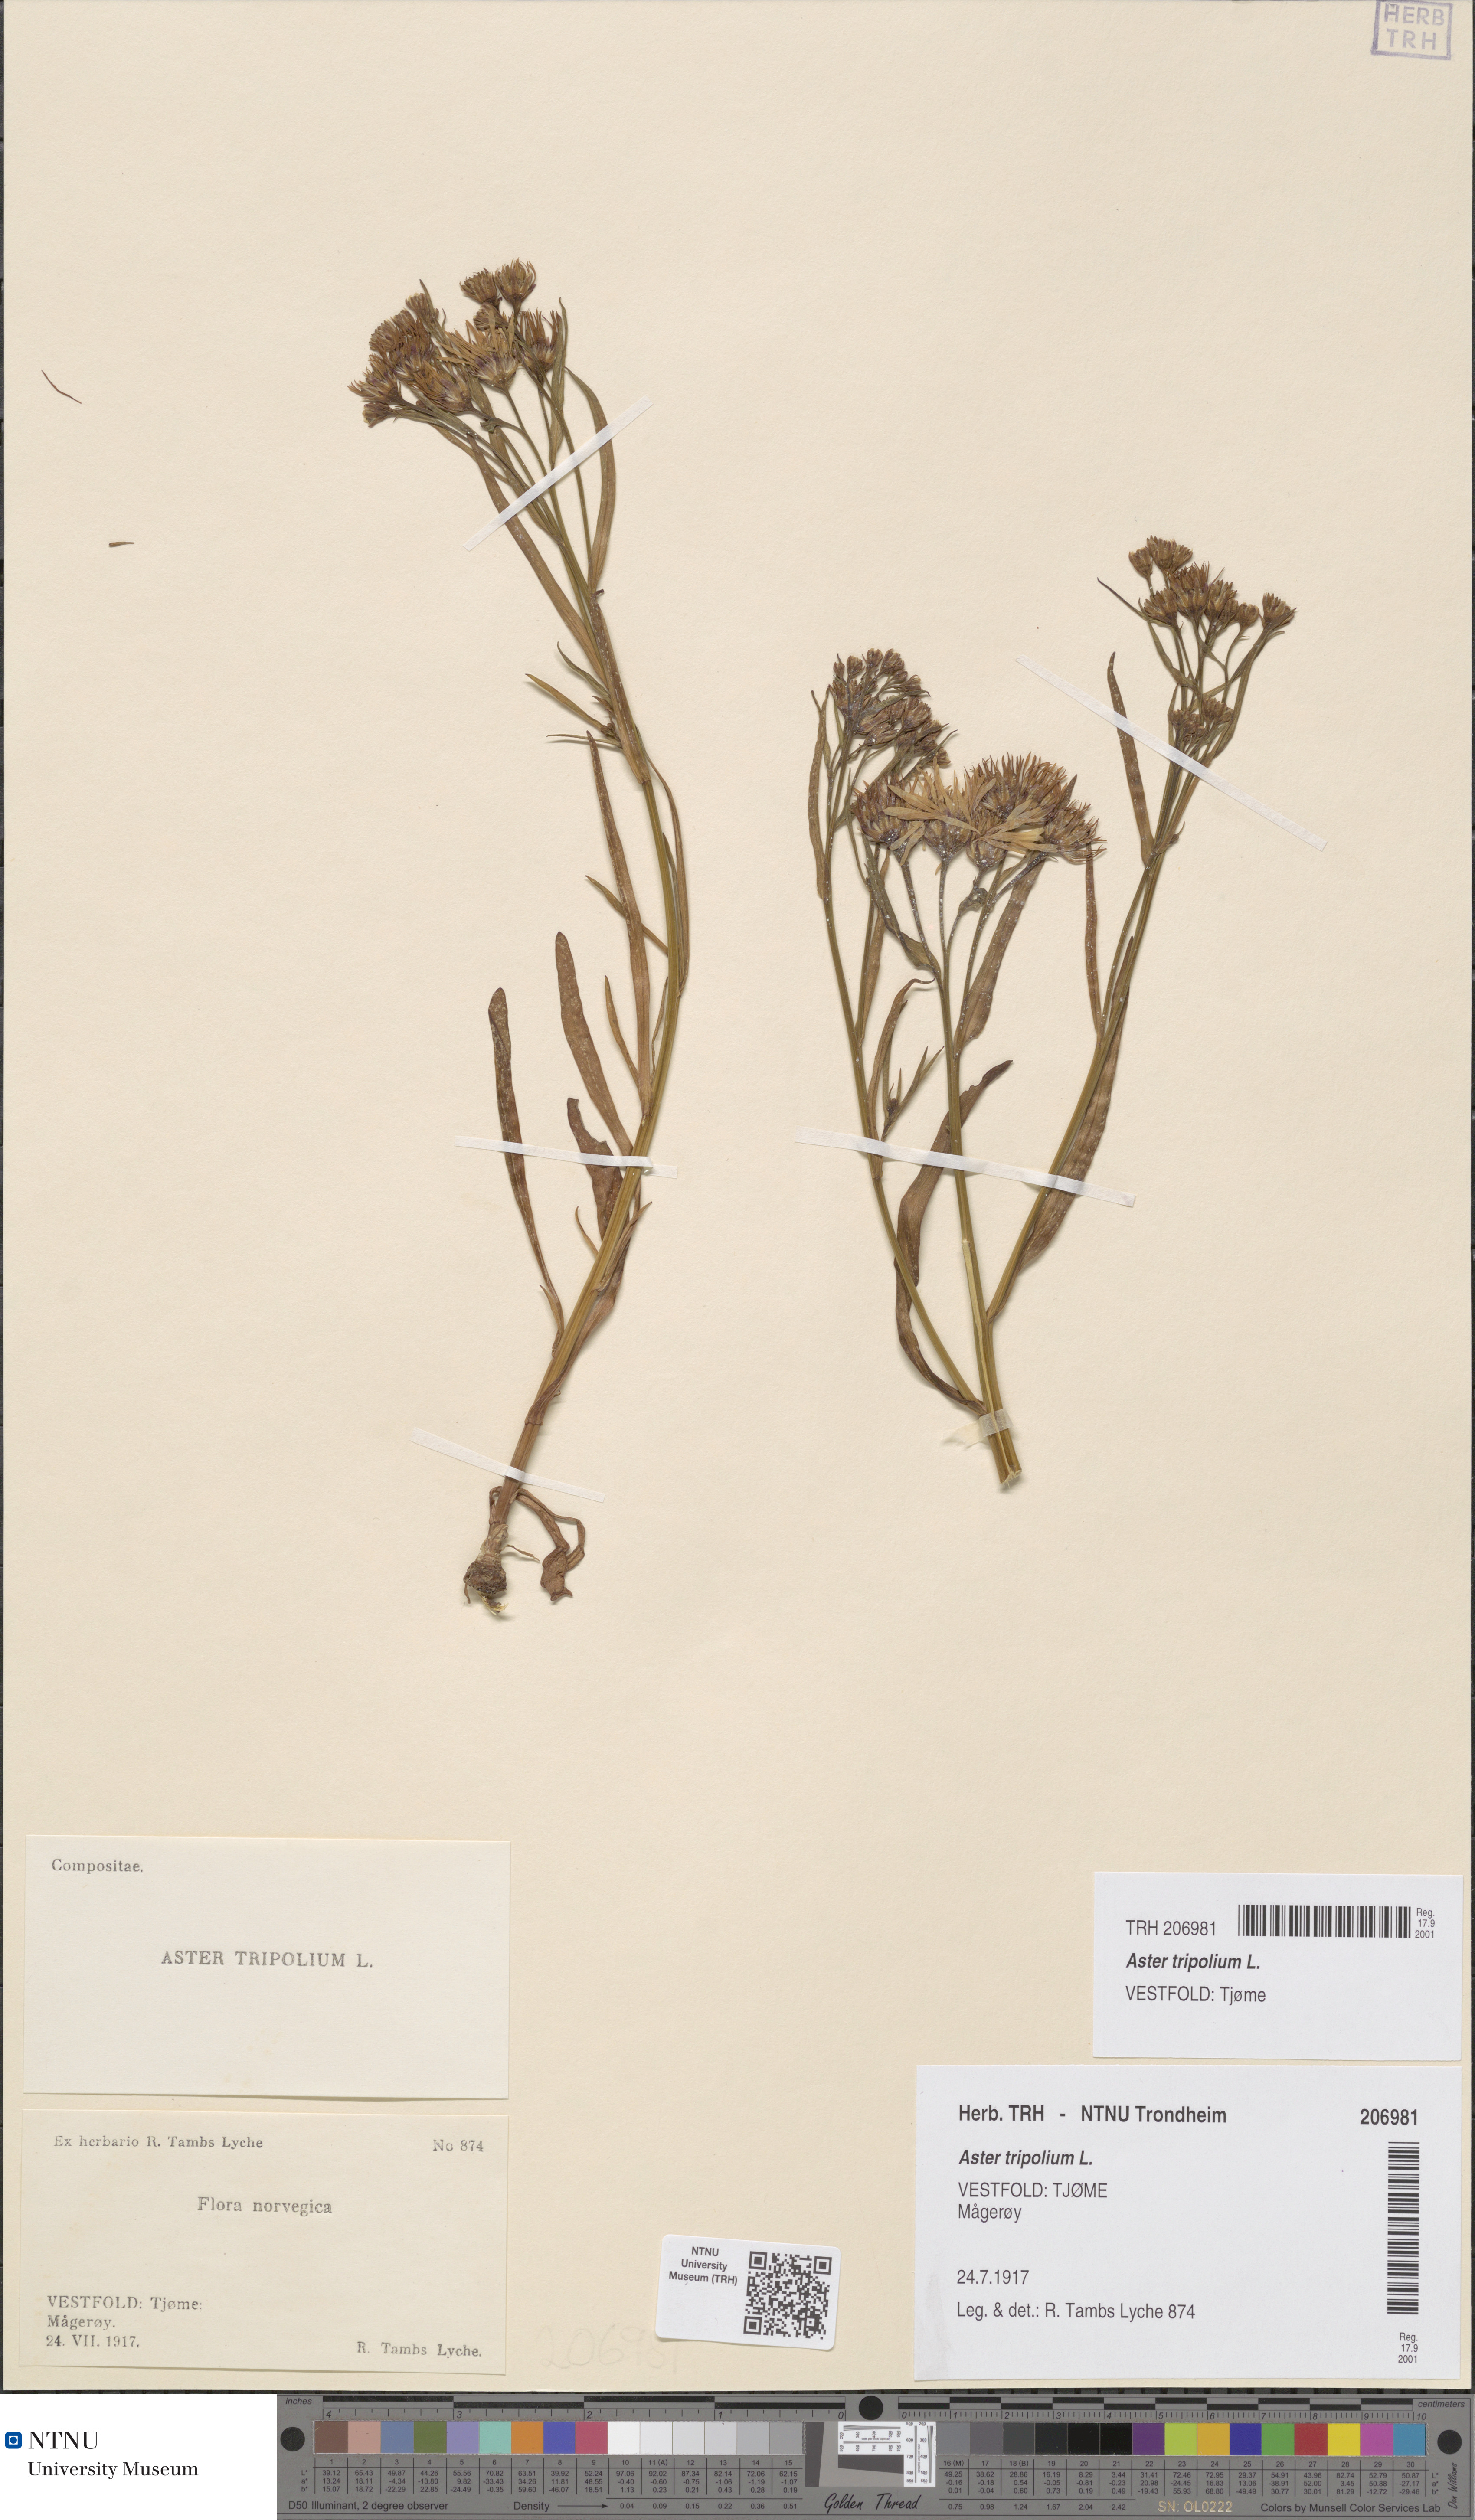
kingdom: Plantae
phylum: Tracheophyta
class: Magnoliopsida
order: Asterales
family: Asteraceae
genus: Tripolium
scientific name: Tripolium pannonicum
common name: Sea aster
